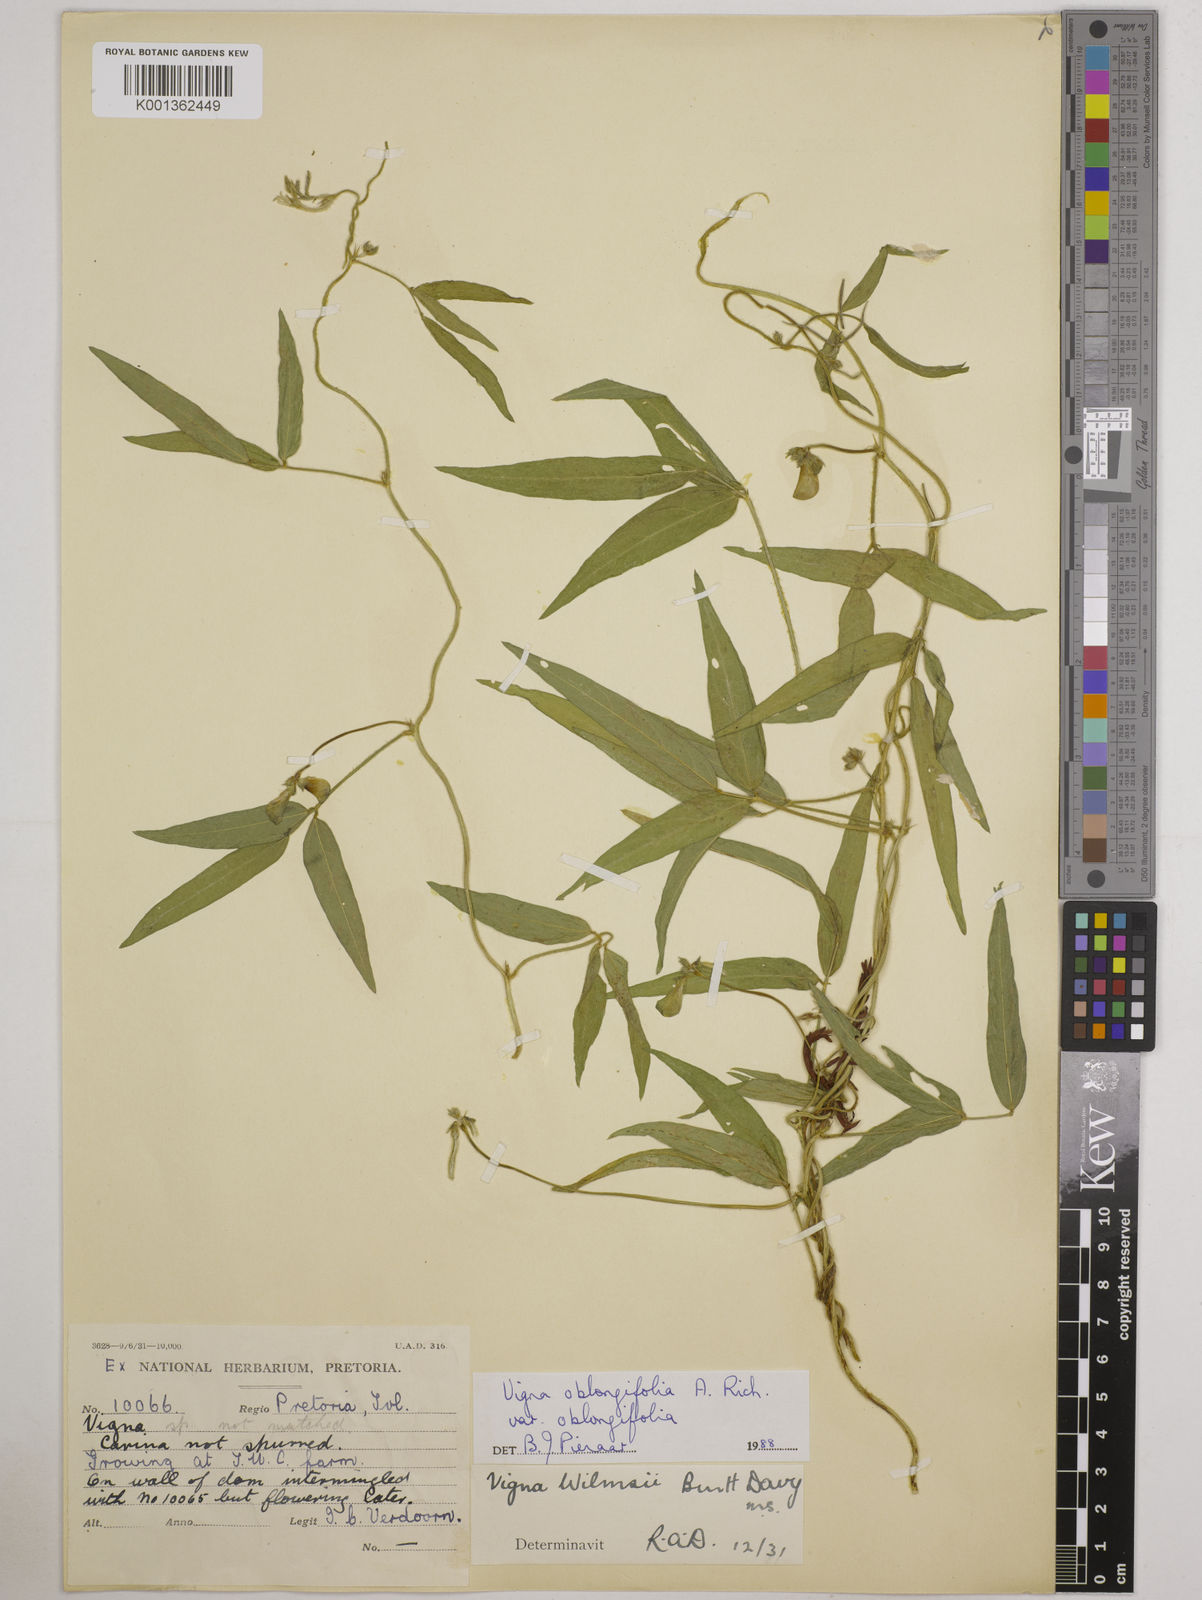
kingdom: Plantae
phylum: Tracheophyta
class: Magnoliopsida
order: Fabales
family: Fabaceae
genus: Vigna
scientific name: Vigna oblongifolia
